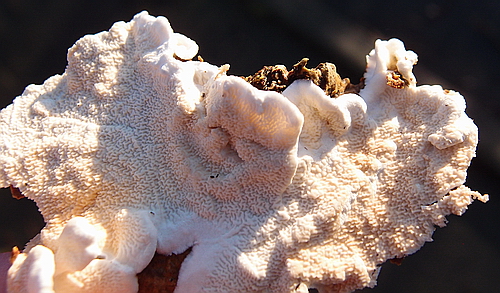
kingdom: Fungi
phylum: Basidiomycota
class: Agaricomycetes
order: Polyporales
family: Irpicaceae
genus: Byssomerulius
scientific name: Byssomerulius corium
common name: læder-åresvamp
